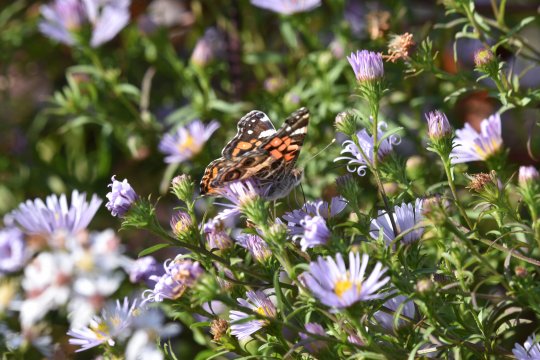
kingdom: Animalia
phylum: Arthropoda
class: Insecta
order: Lepidoptera
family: Nymphalidae
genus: Vanessa
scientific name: Vanessa virginiensis
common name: American Lady
